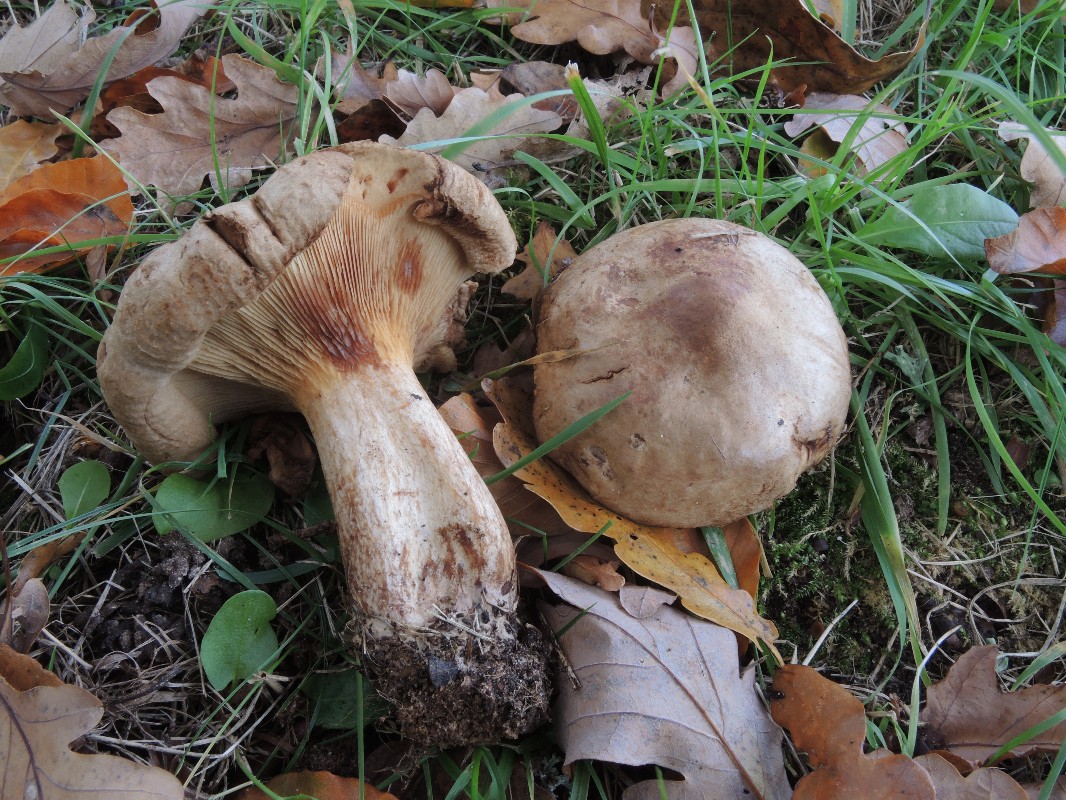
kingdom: Fungi
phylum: Basidiomycota
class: Agaricomycetes
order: Boletales
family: Paxillaceae
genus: Paxillus
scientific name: Paxillus ammoniavirescens
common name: olivensporet netbladhat
